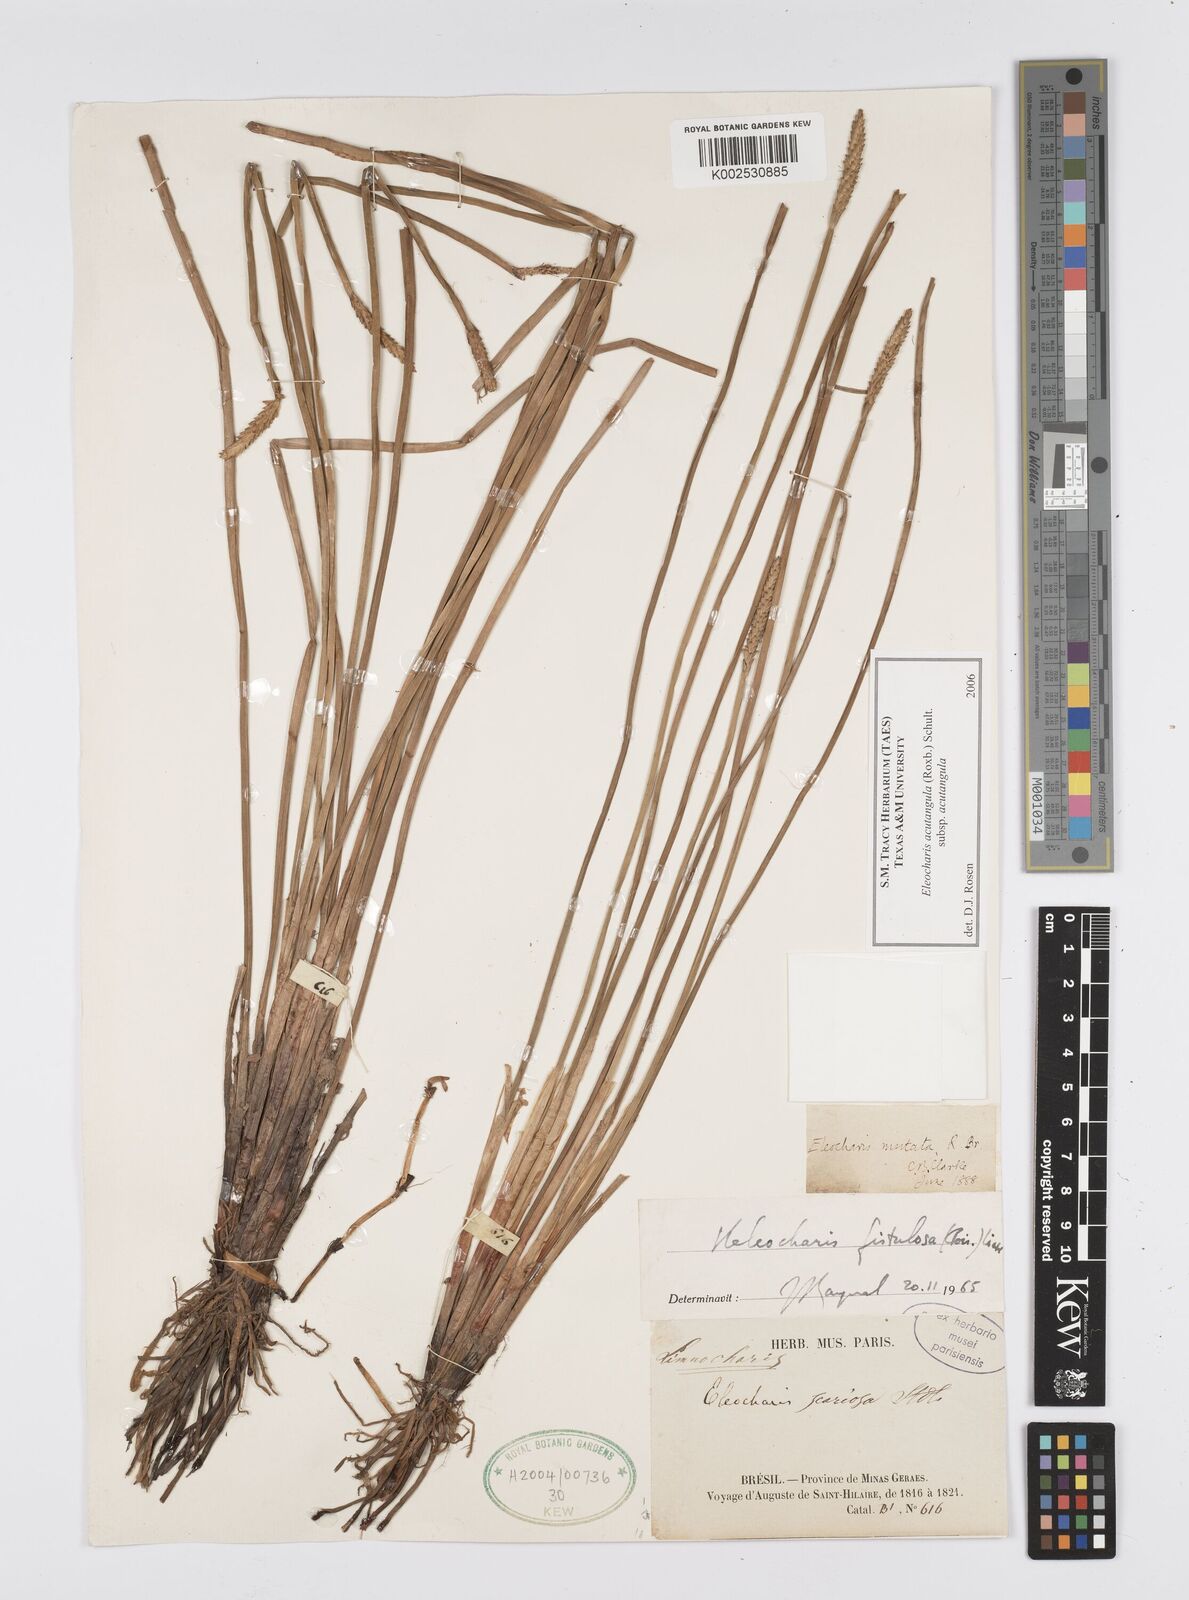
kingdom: Plantae
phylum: Tracheophyta
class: Liliopsida
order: Poales
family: Cyperaceae
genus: Eleocharis
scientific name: Eleocharis acutangula
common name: Acute spikerush
